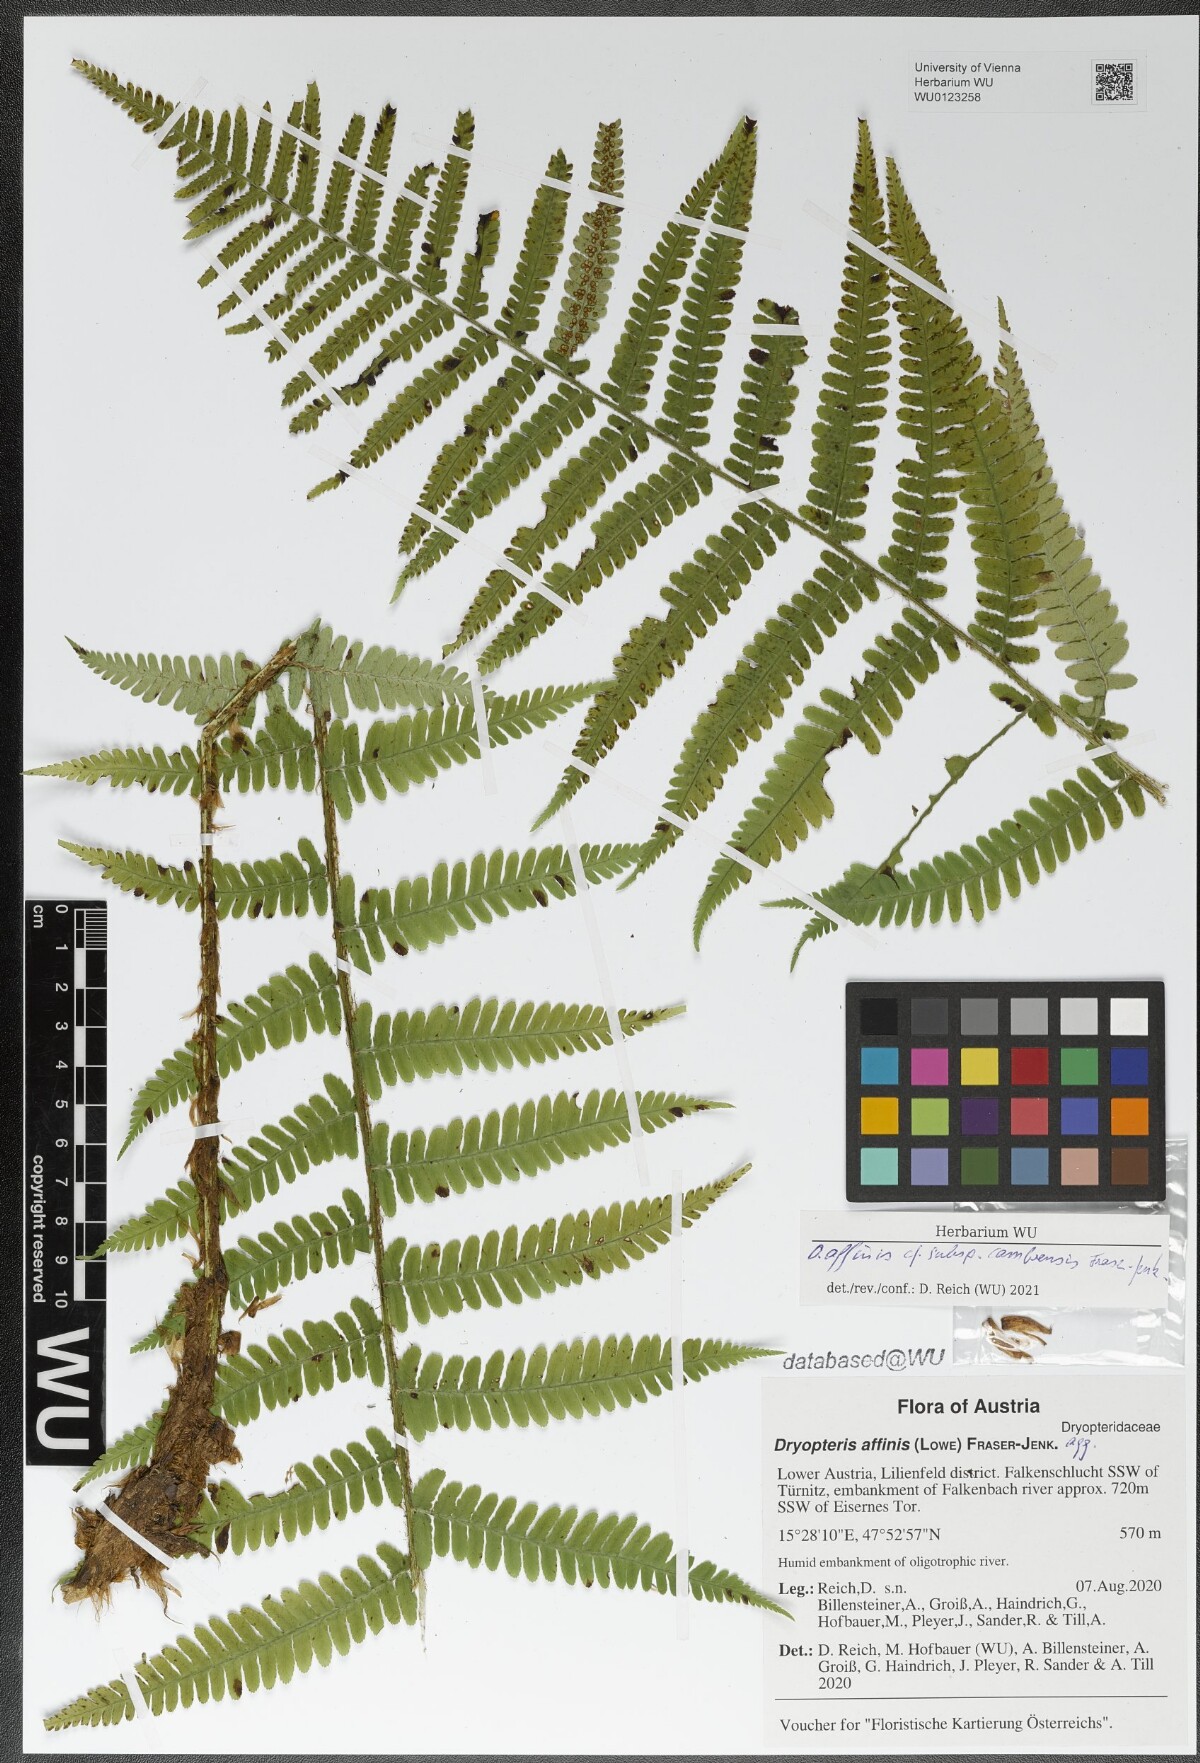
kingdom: Plantae
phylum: Tracheophyta
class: Polypodiopsida
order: Polypodiales
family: Dryopteridaceae
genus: Dryopteris
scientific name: Dryopteris cambrensis
